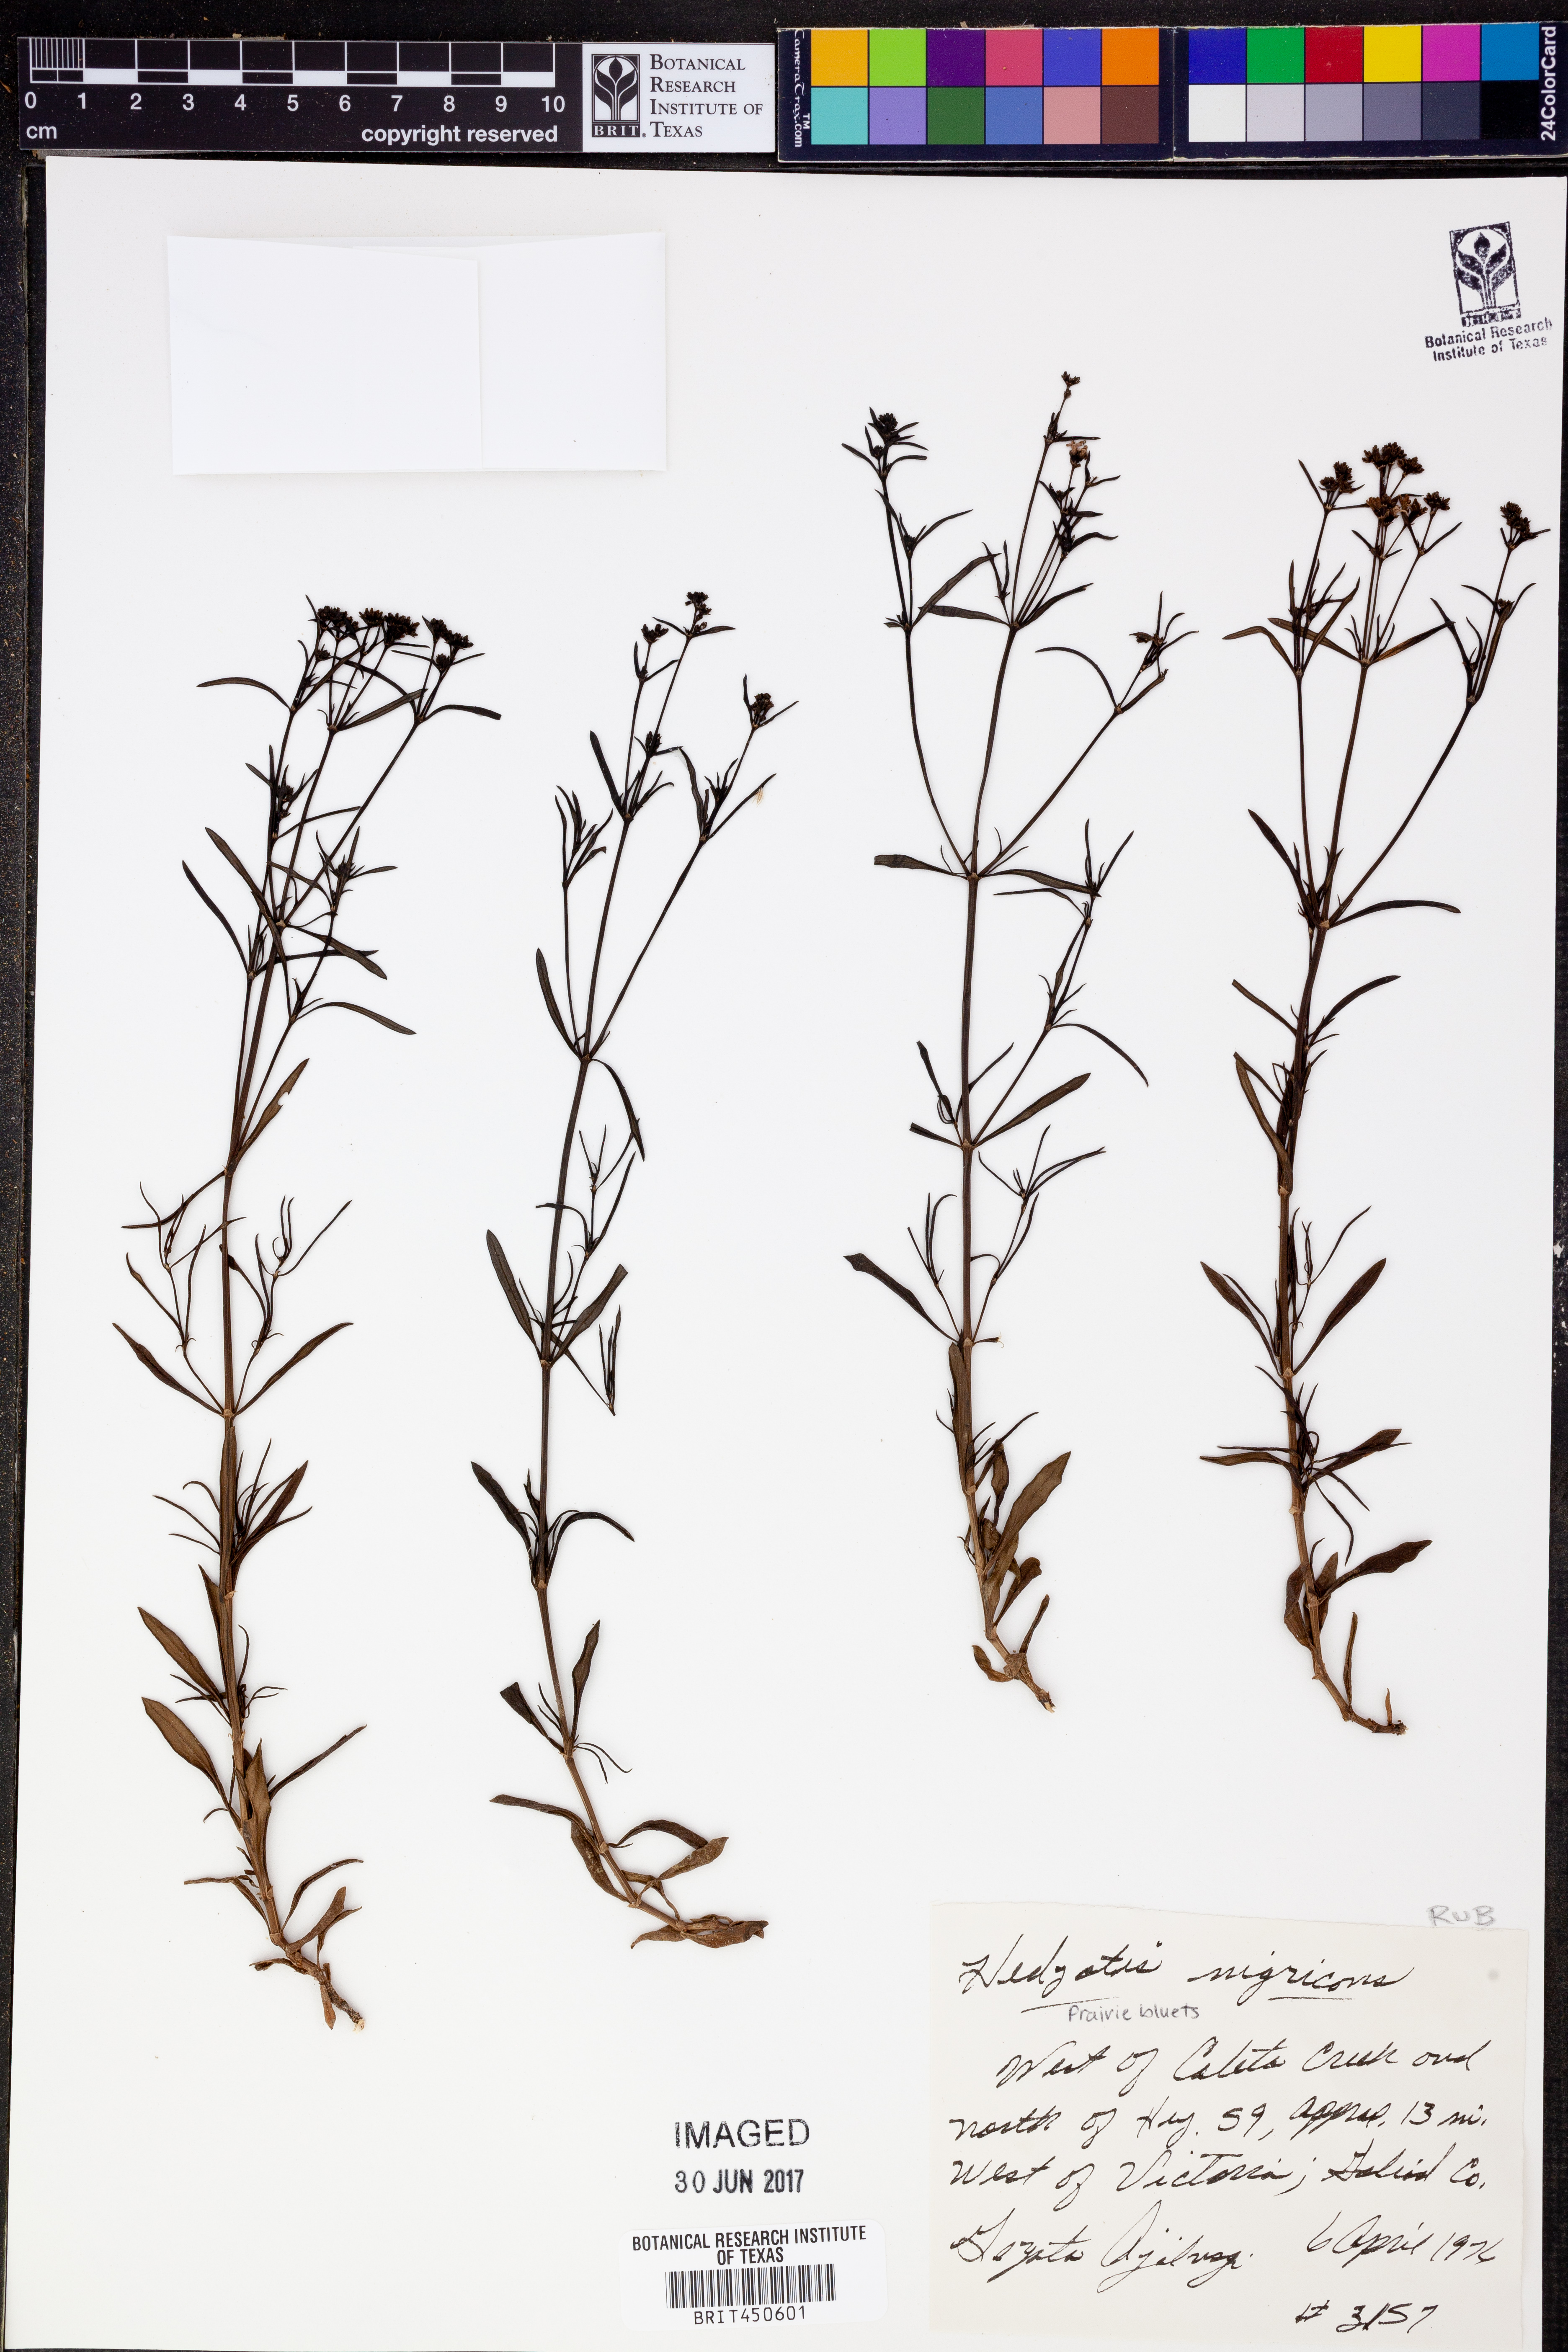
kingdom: Plantae
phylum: Tracheophyta
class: Magnoliopsida
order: Gentianales
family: Rubiaceae
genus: Stenaria
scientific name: Stenaria nigricans
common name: Diamondflowers
